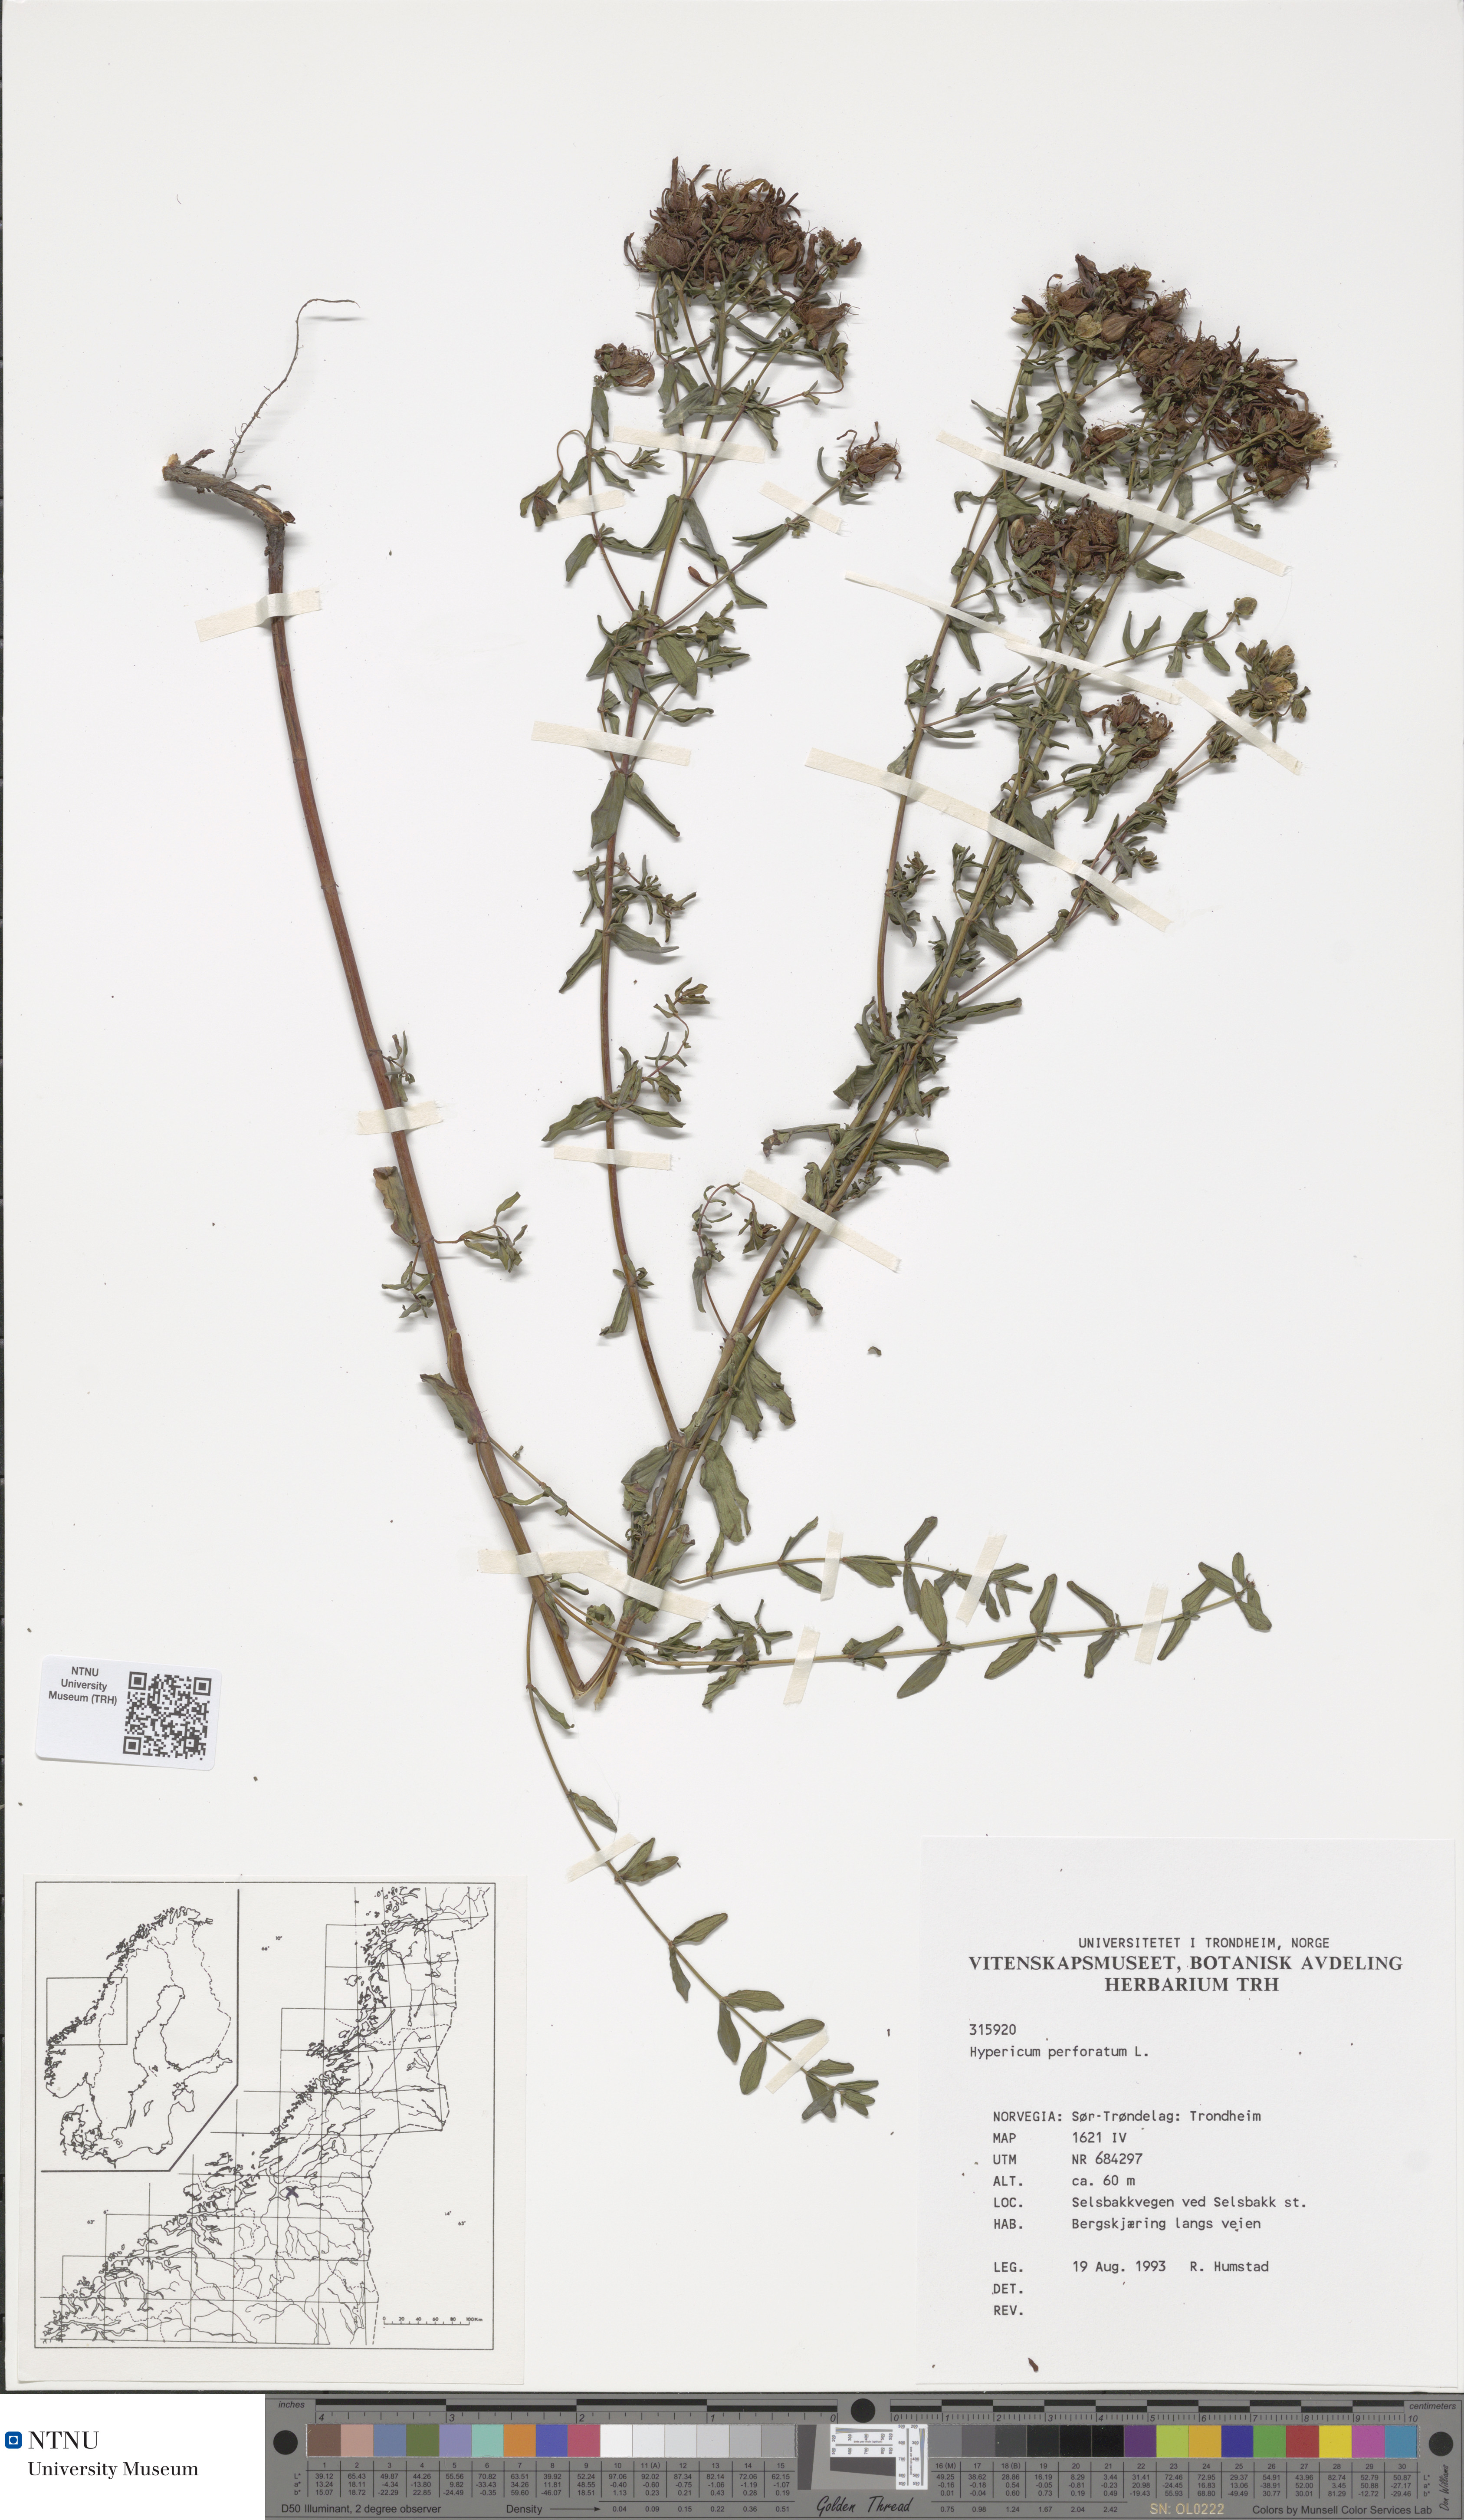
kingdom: Plantae
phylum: Tracheophyta
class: Magnoliopsida
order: Malpighiales
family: Hypericaceae
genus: Hypericum
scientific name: Hypericum perforatum
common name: Common st. johnswort
